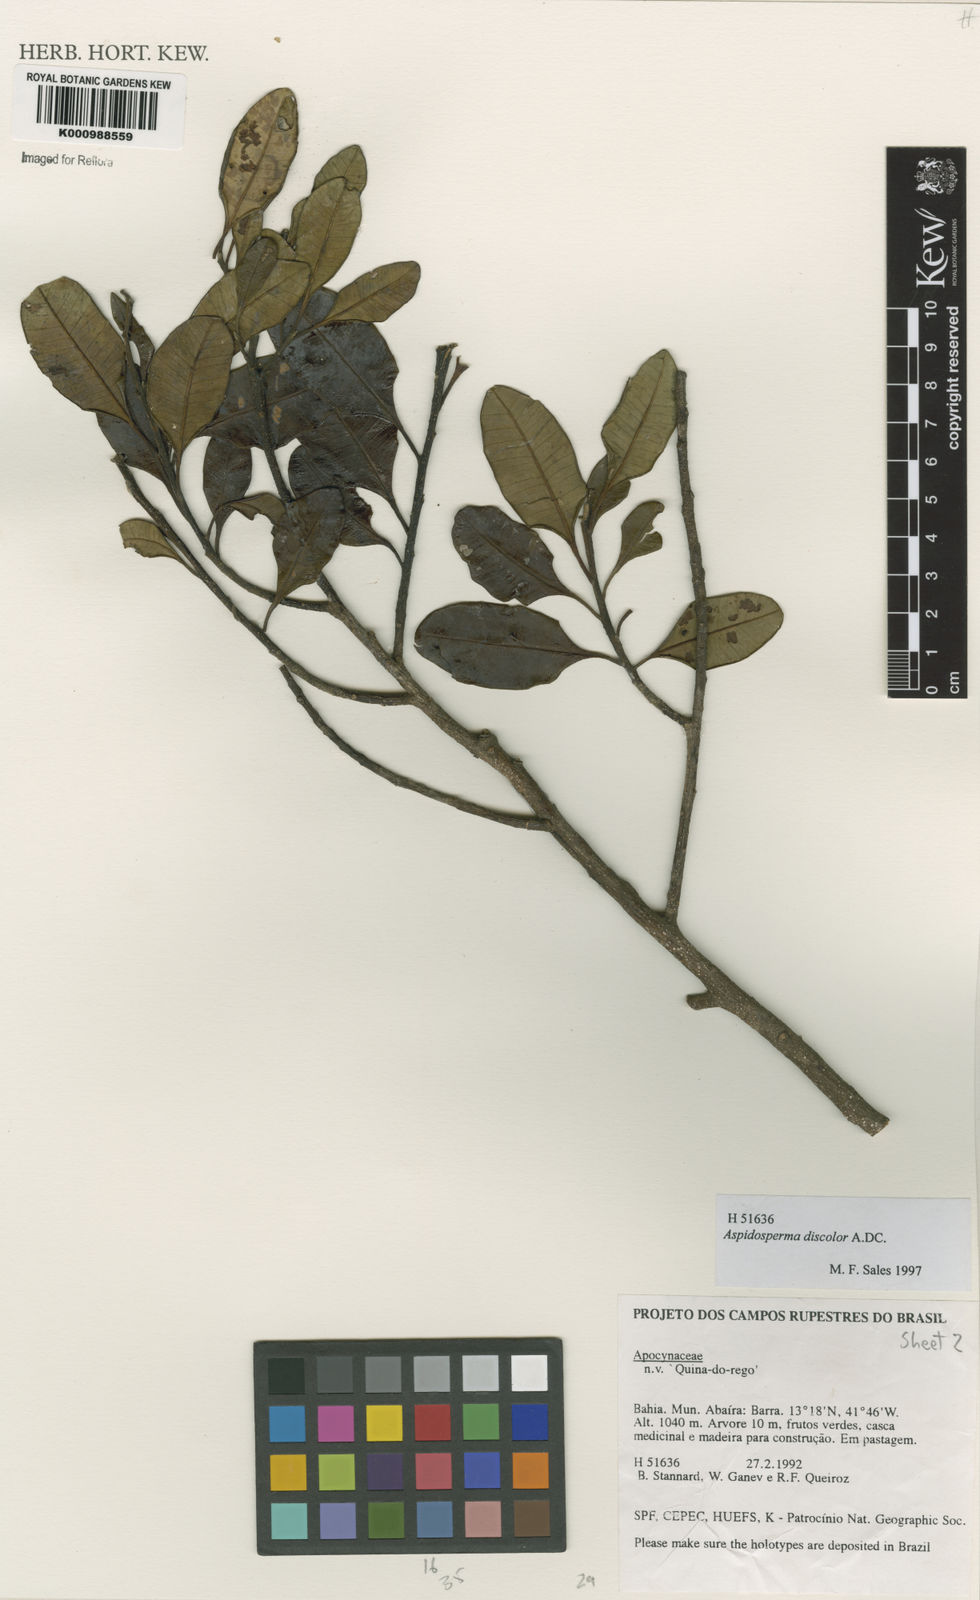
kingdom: Plantae
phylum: Tracheophyta
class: Magnoliopsida
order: Gentianales
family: Apocynaceae
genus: Aspidosperma
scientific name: Aspidosperma discolor
